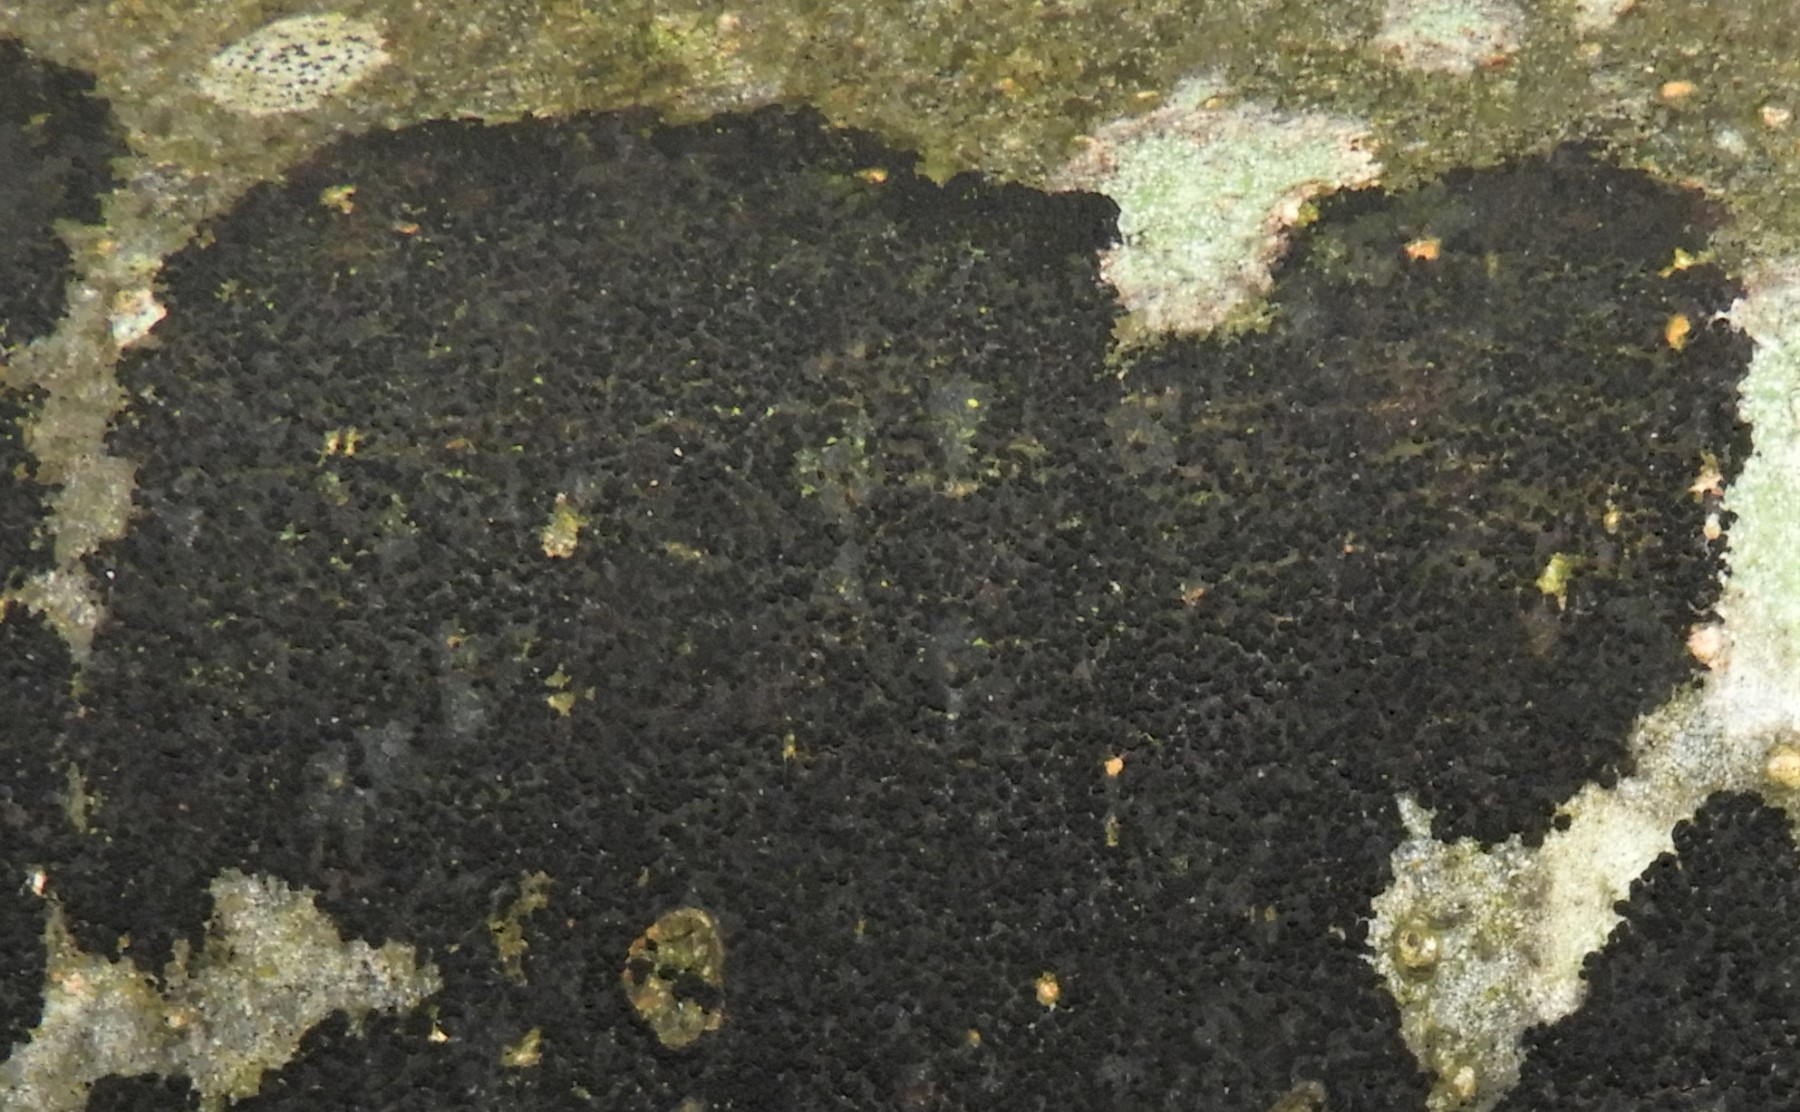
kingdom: Fungi
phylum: Ascomycota
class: Leotiomycetes
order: Rhytismatales
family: Ascodichaenaceae
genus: Ascodichaena
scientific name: Ascodichaena rugosa
